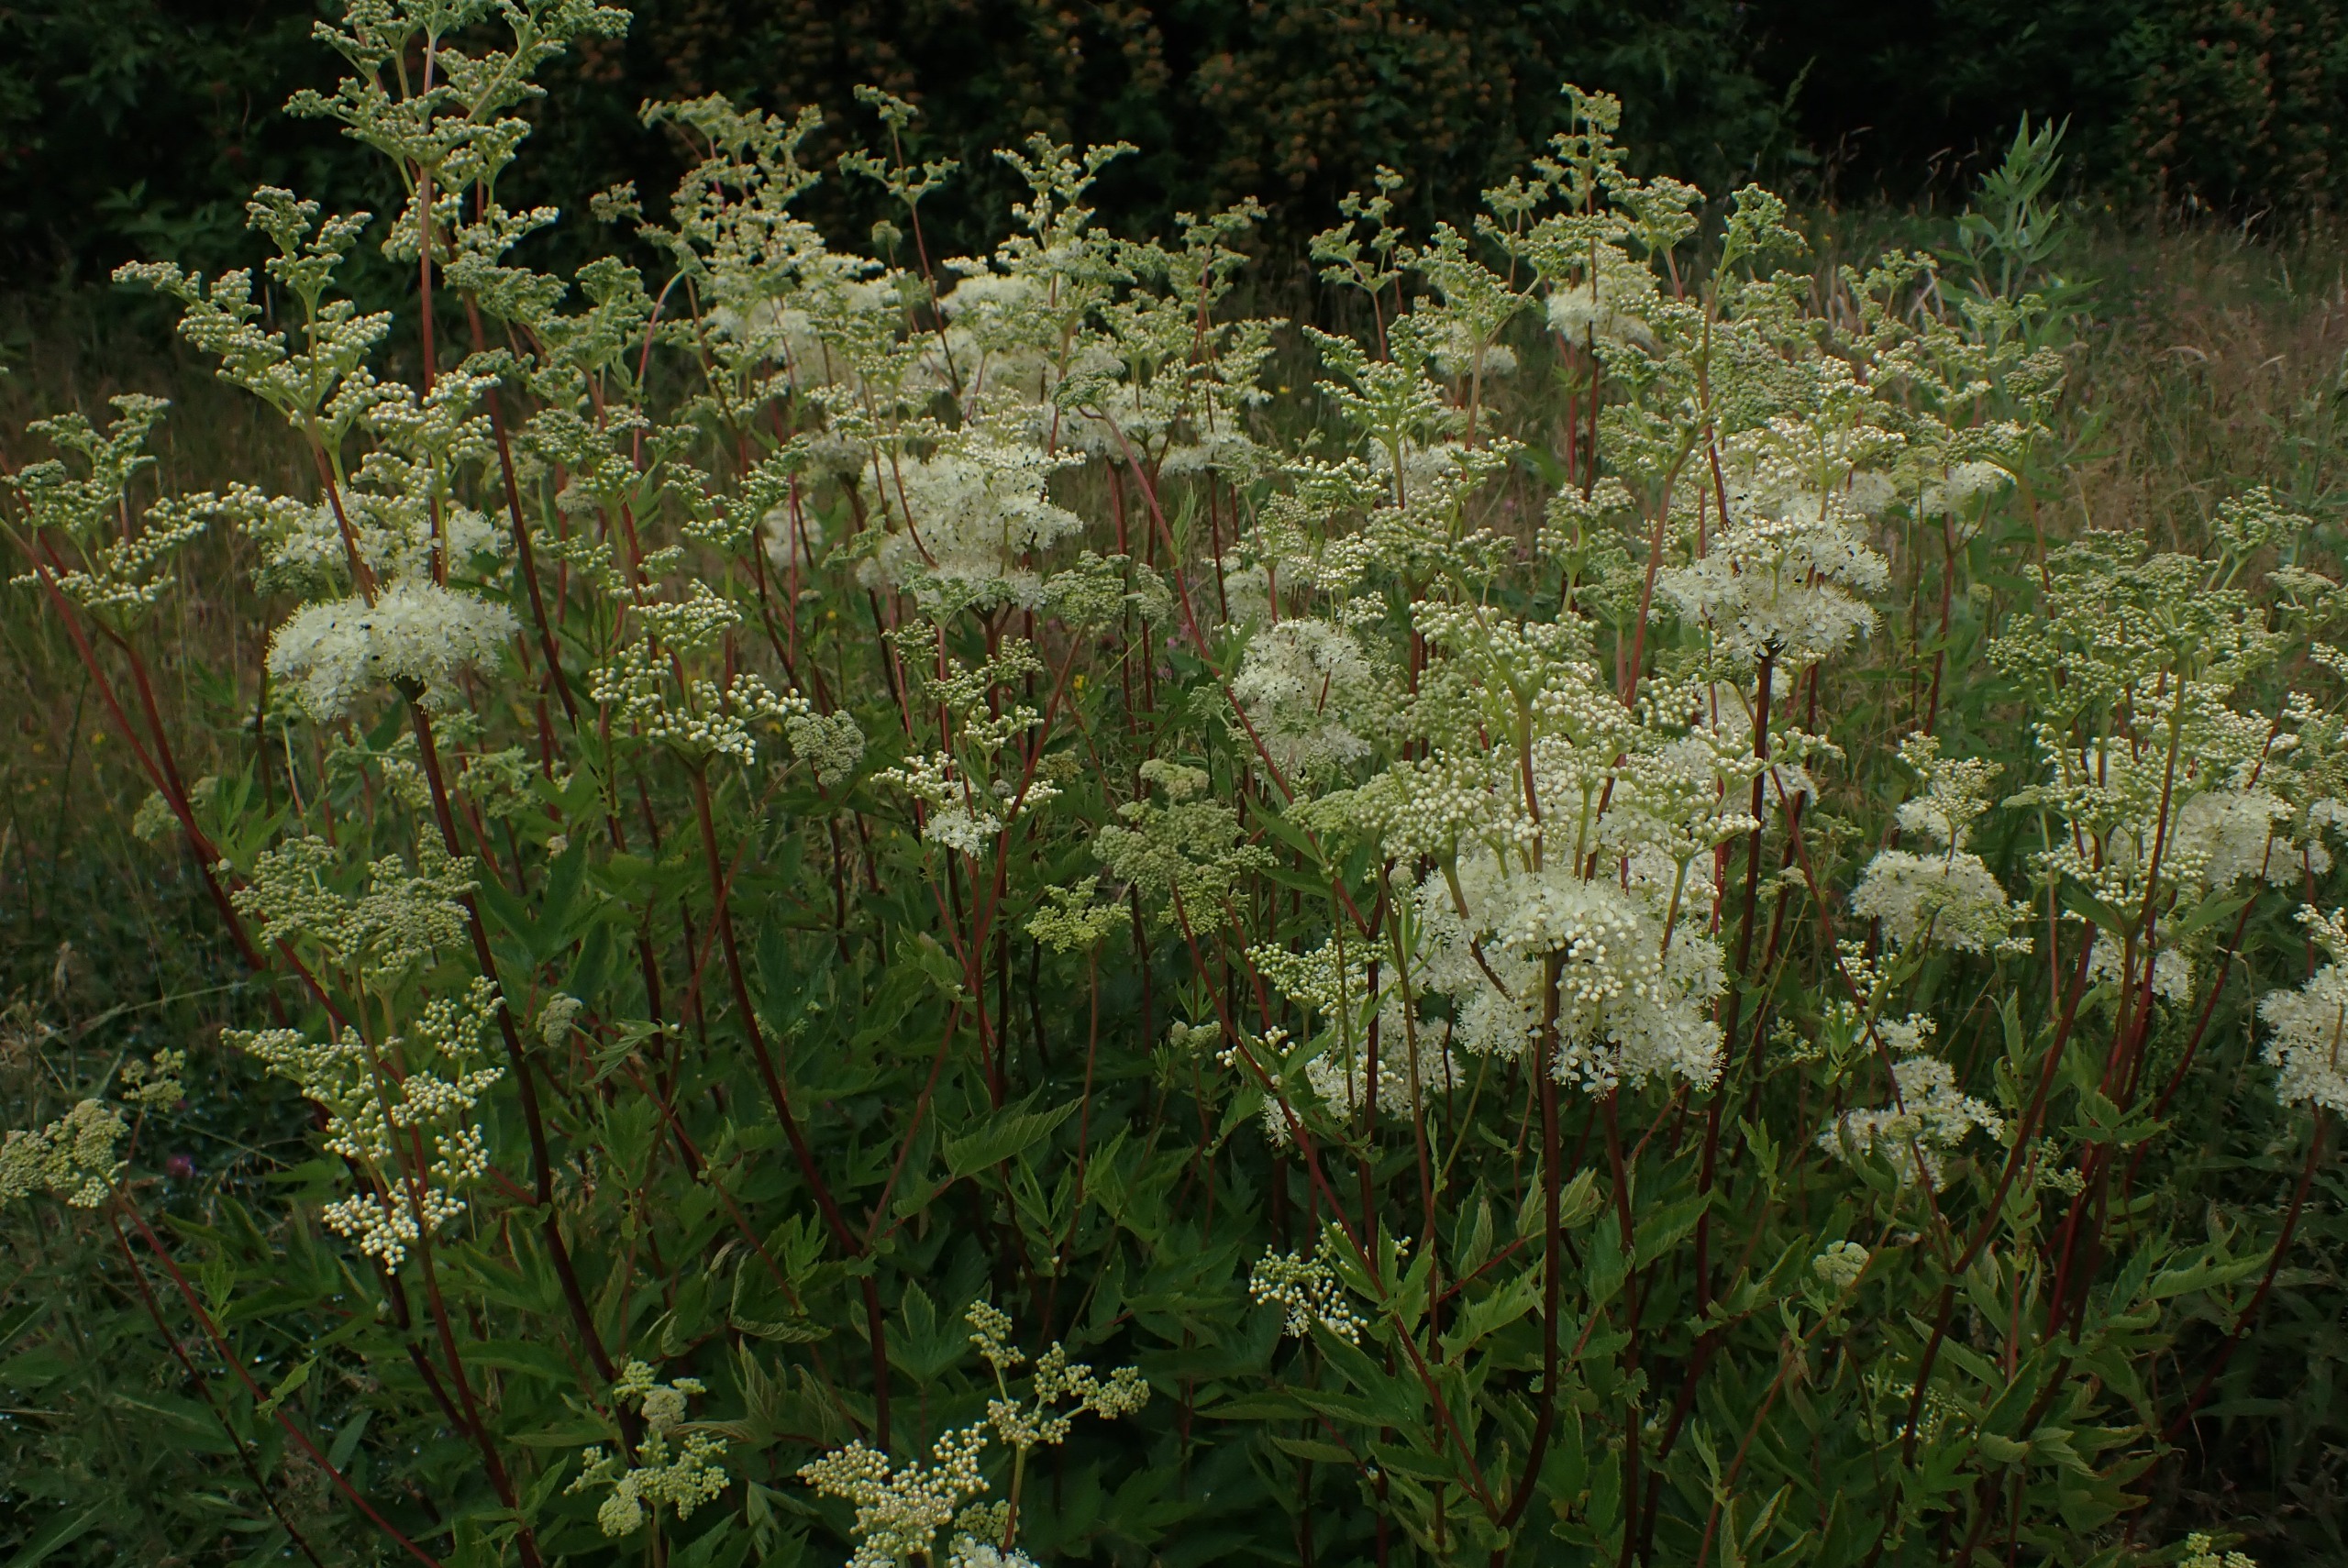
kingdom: Plantae
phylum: Tracheophyta
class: Magnoliopsida
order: Rosales
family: Rosaceae
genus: Filipendula
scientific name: Filipendula ulmaria
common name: Almindelig mjødurt
